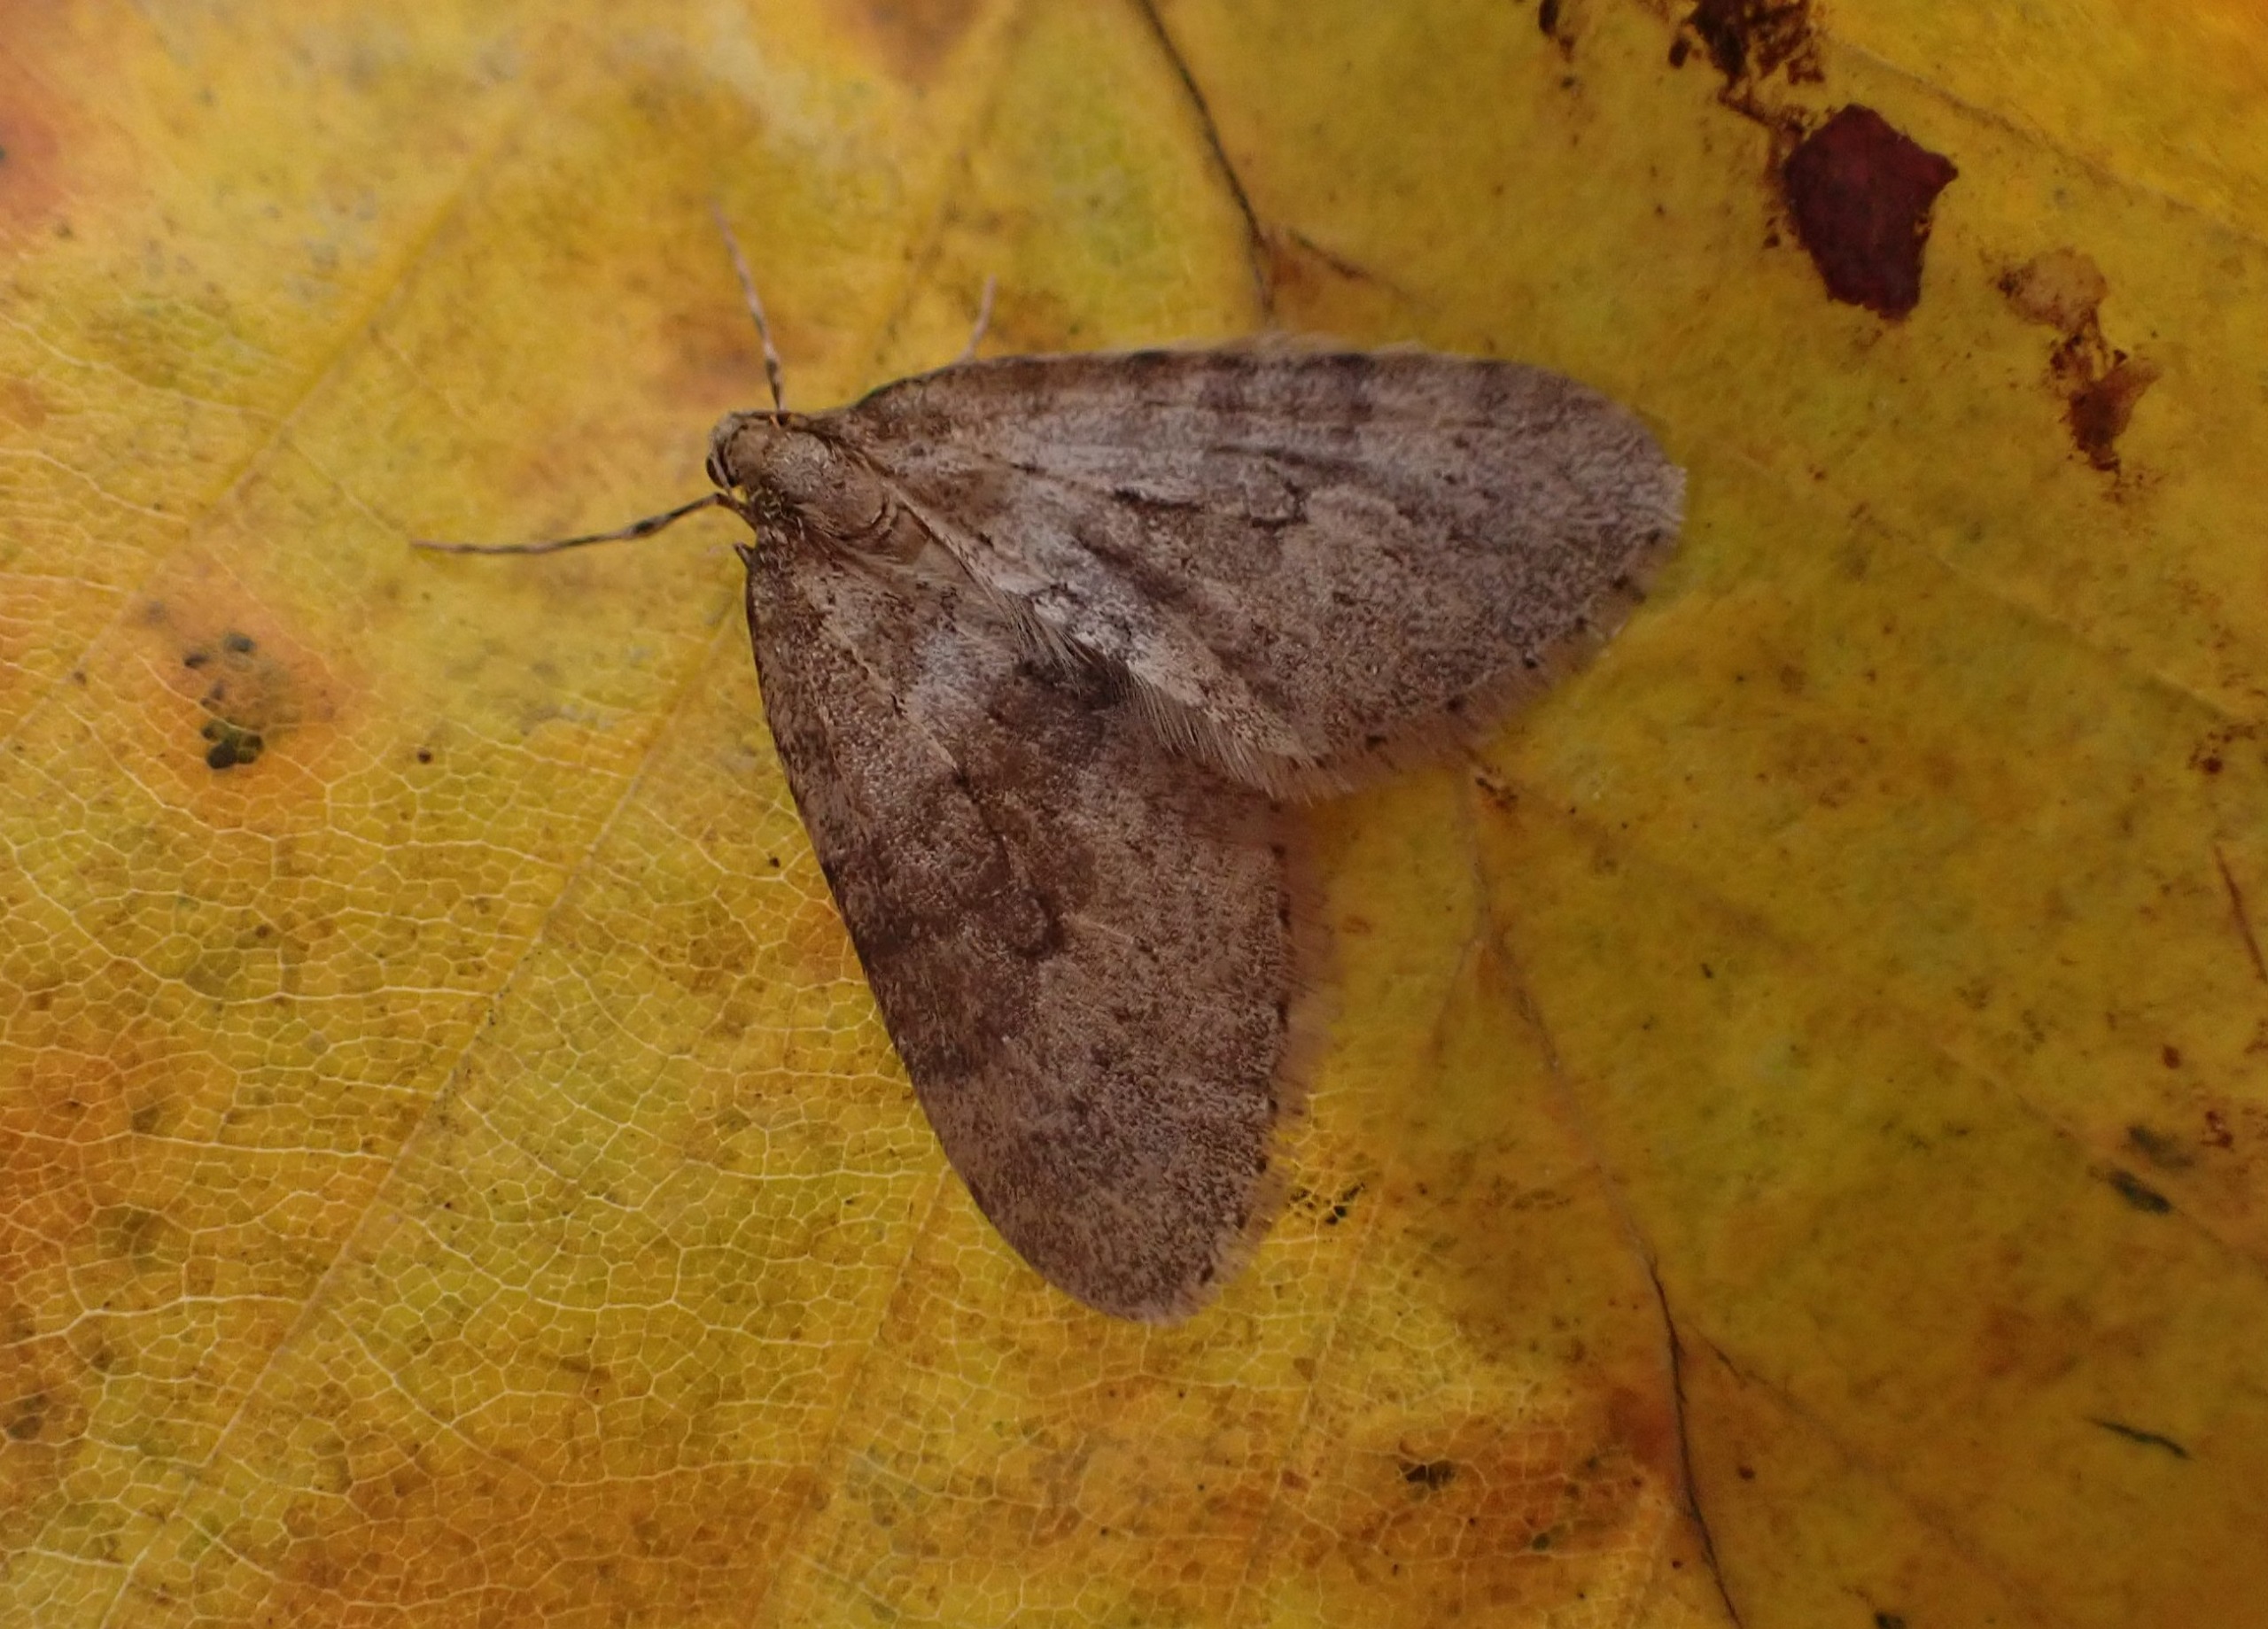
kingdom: Animalia
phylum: Arthropoda
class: Insecta
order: Lepidoptera
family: Geometridae
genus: Operophtera
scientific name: Operophtera brumata
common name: Lille frostmåler
